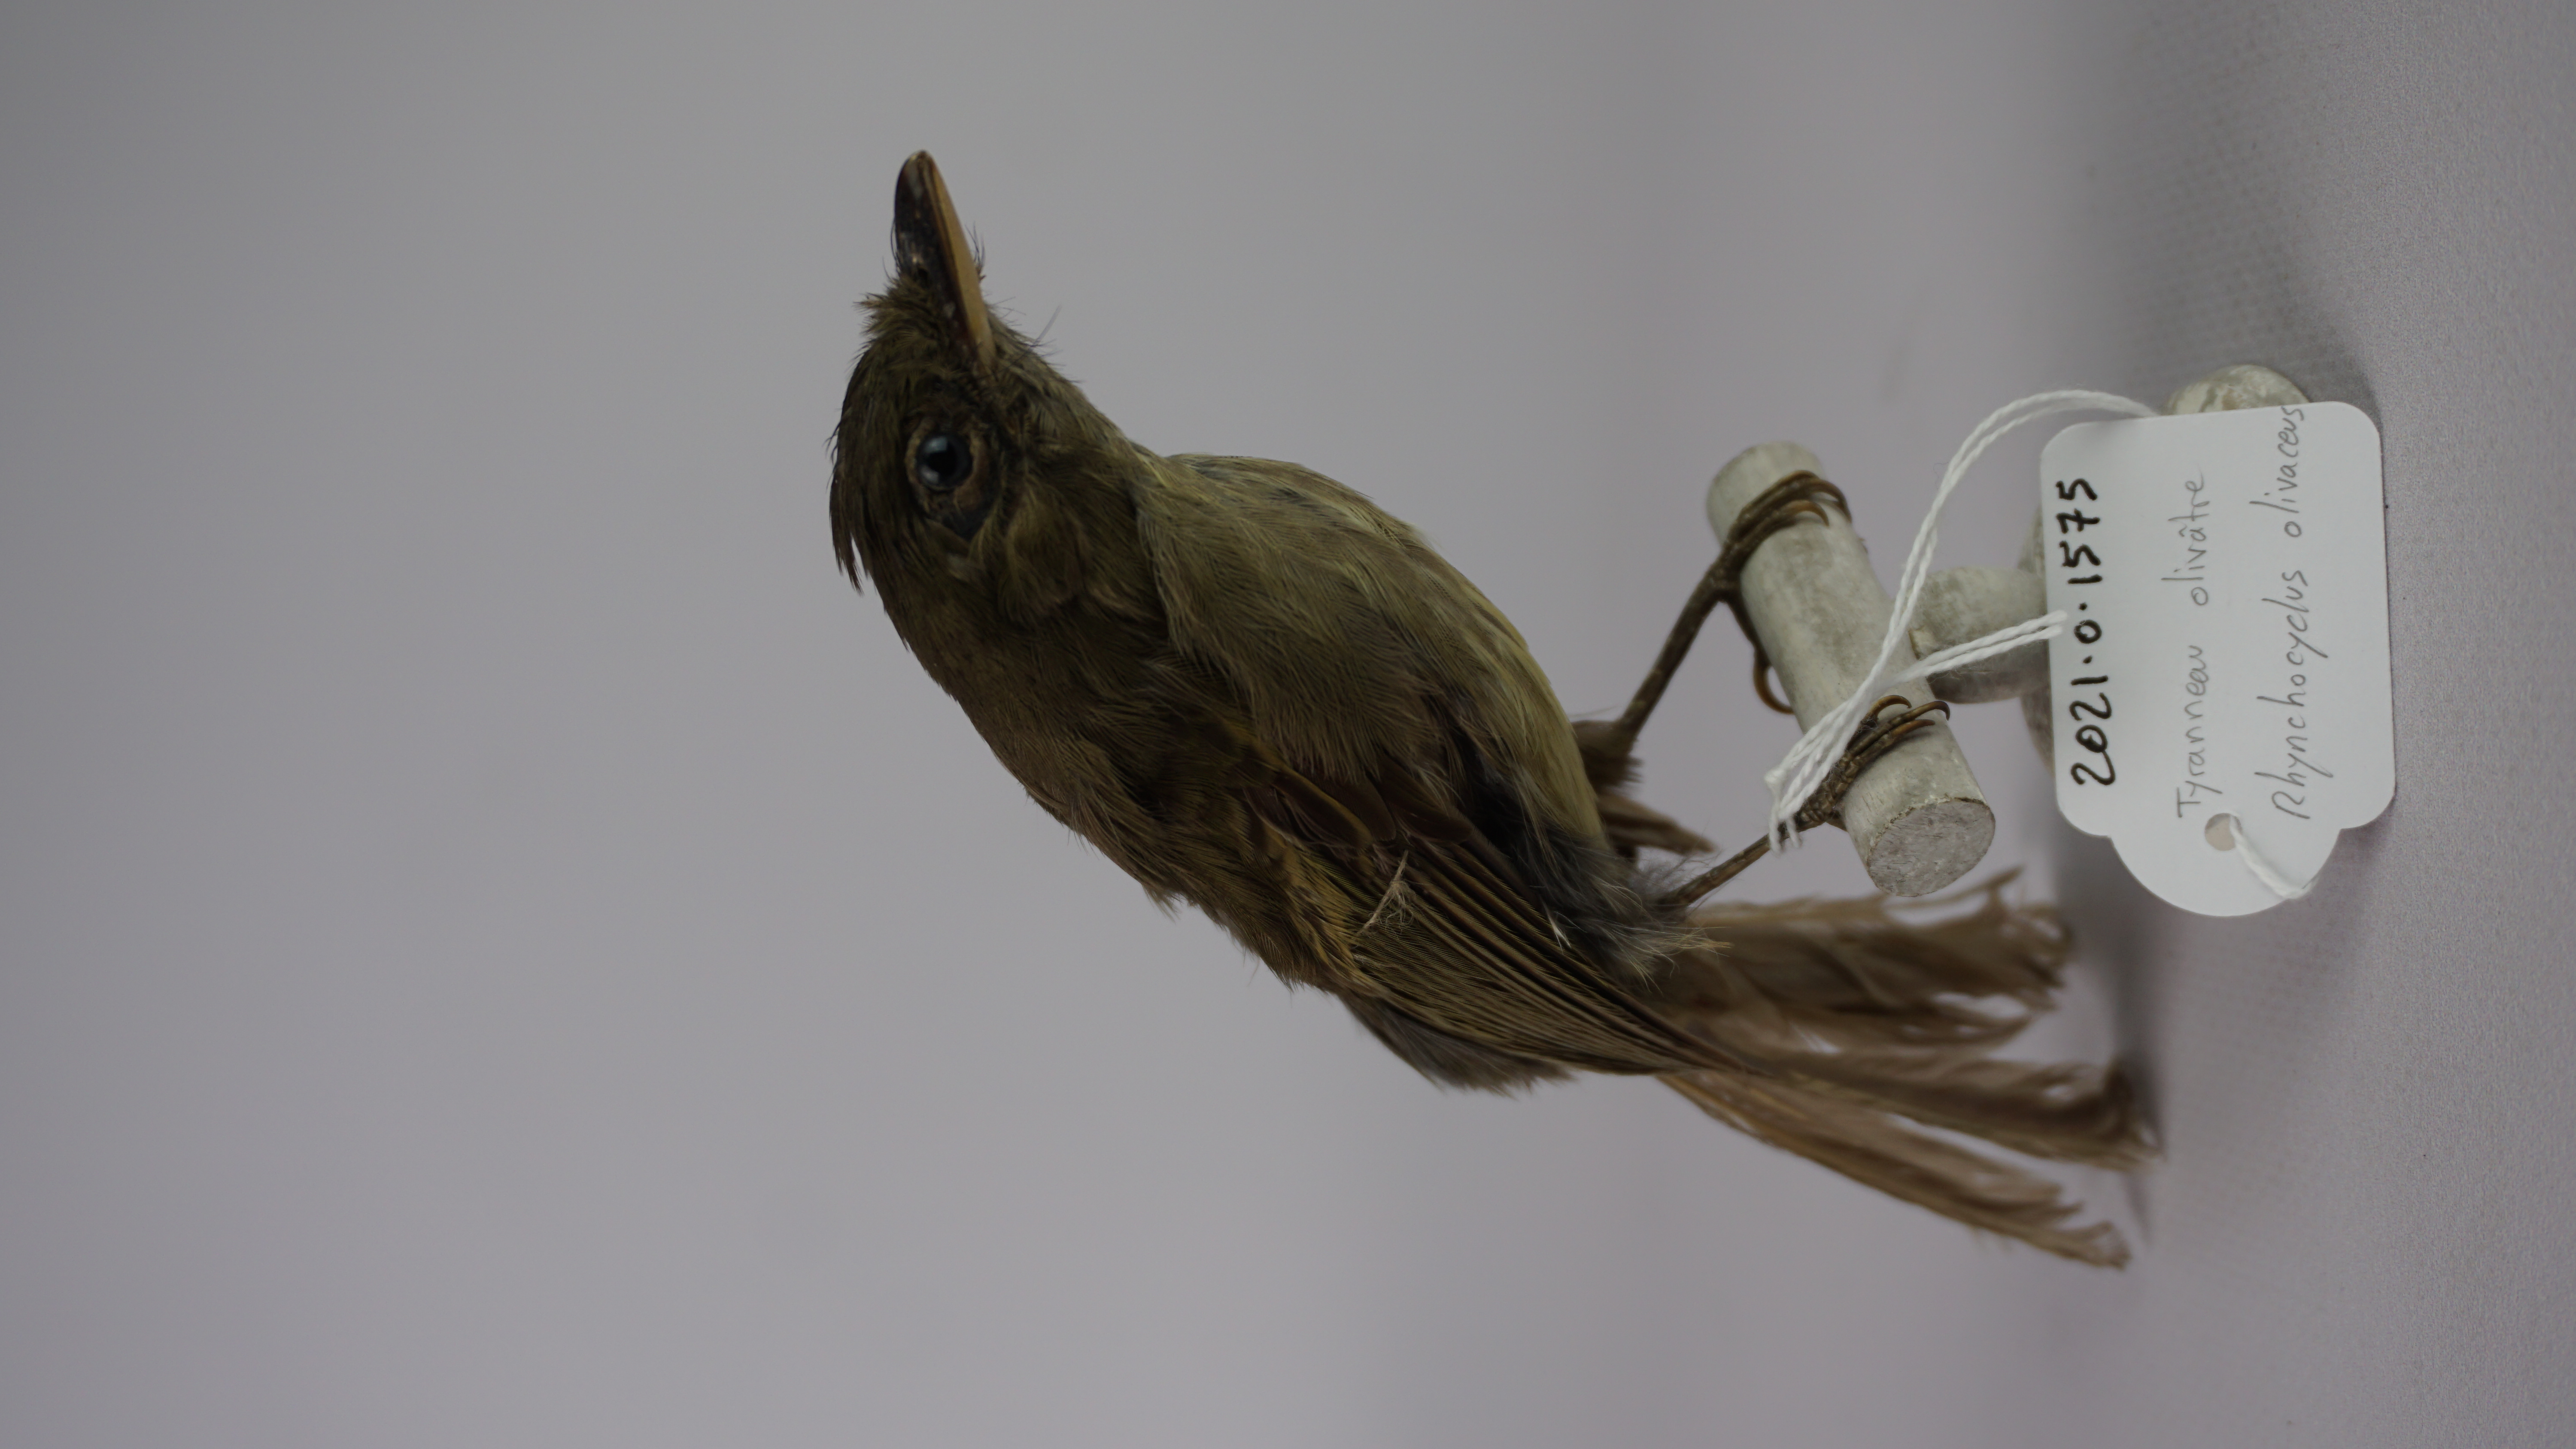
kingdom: Animalia
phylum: Chordata
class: Aves
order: Passeriformes
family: Tyrannidae
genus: Rhynchocyclus
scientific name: Rhynchocyclus olivaceus
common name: Olivaceous flatbill
